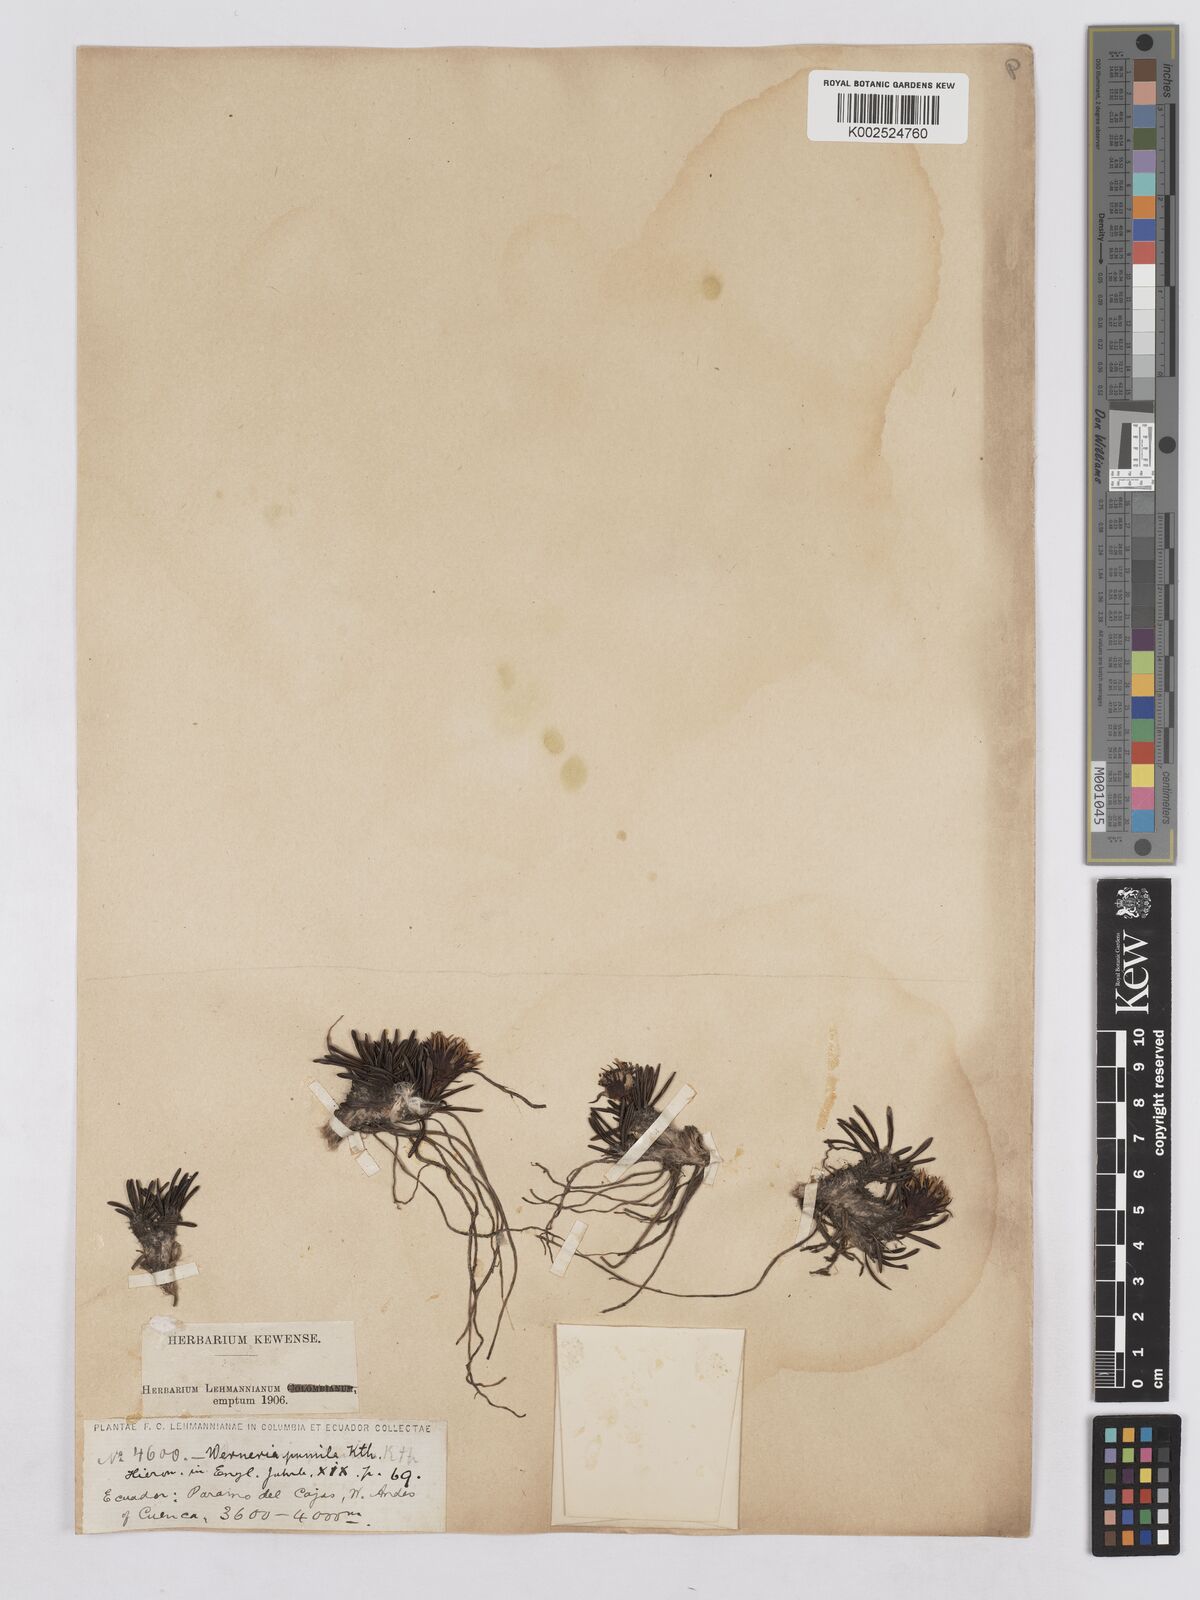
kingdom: Plantae
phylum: Tracheophyta
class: Magnoliopsida
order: Asterales
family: Asteraceae
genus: Rockhausenia
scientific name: Rockhausenia pumila
